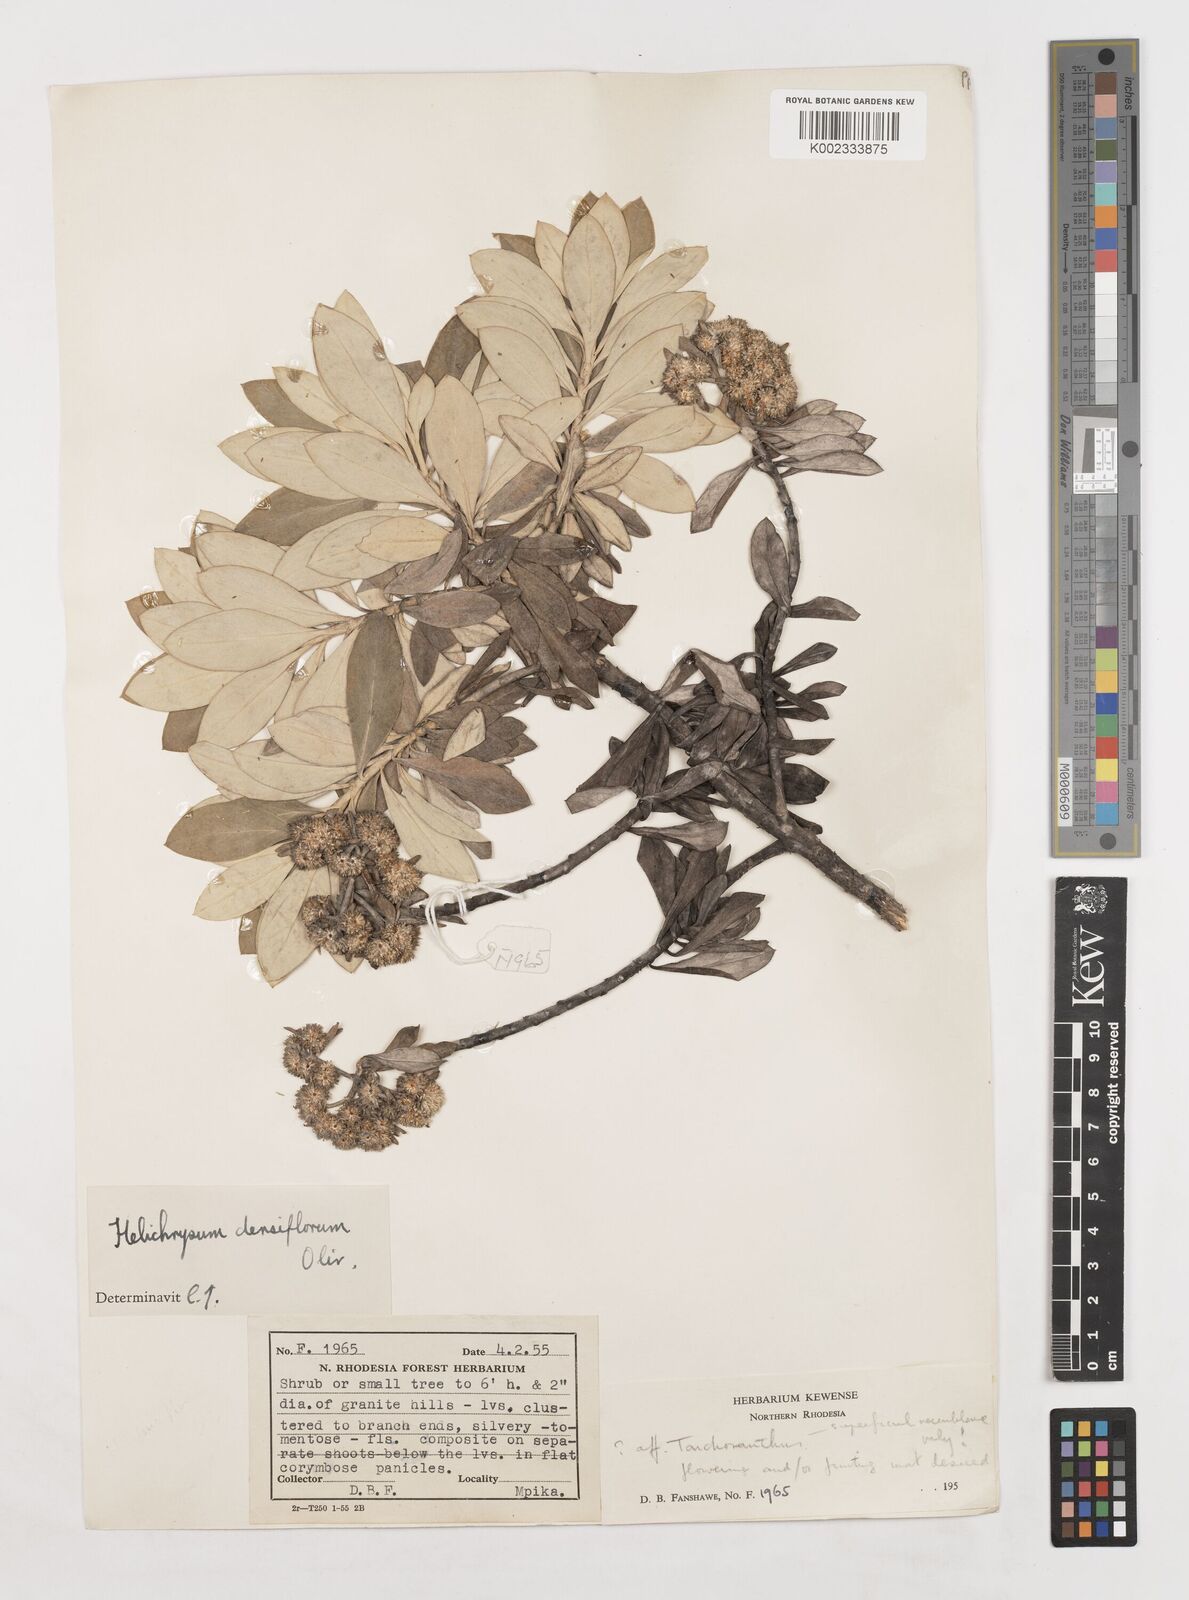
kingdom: Plantae
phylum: Tracheophyta
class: Magnoliopsida
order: Asterales
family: Asteraceae
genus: Helichrysum
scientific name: Helichrysum densiflorum
